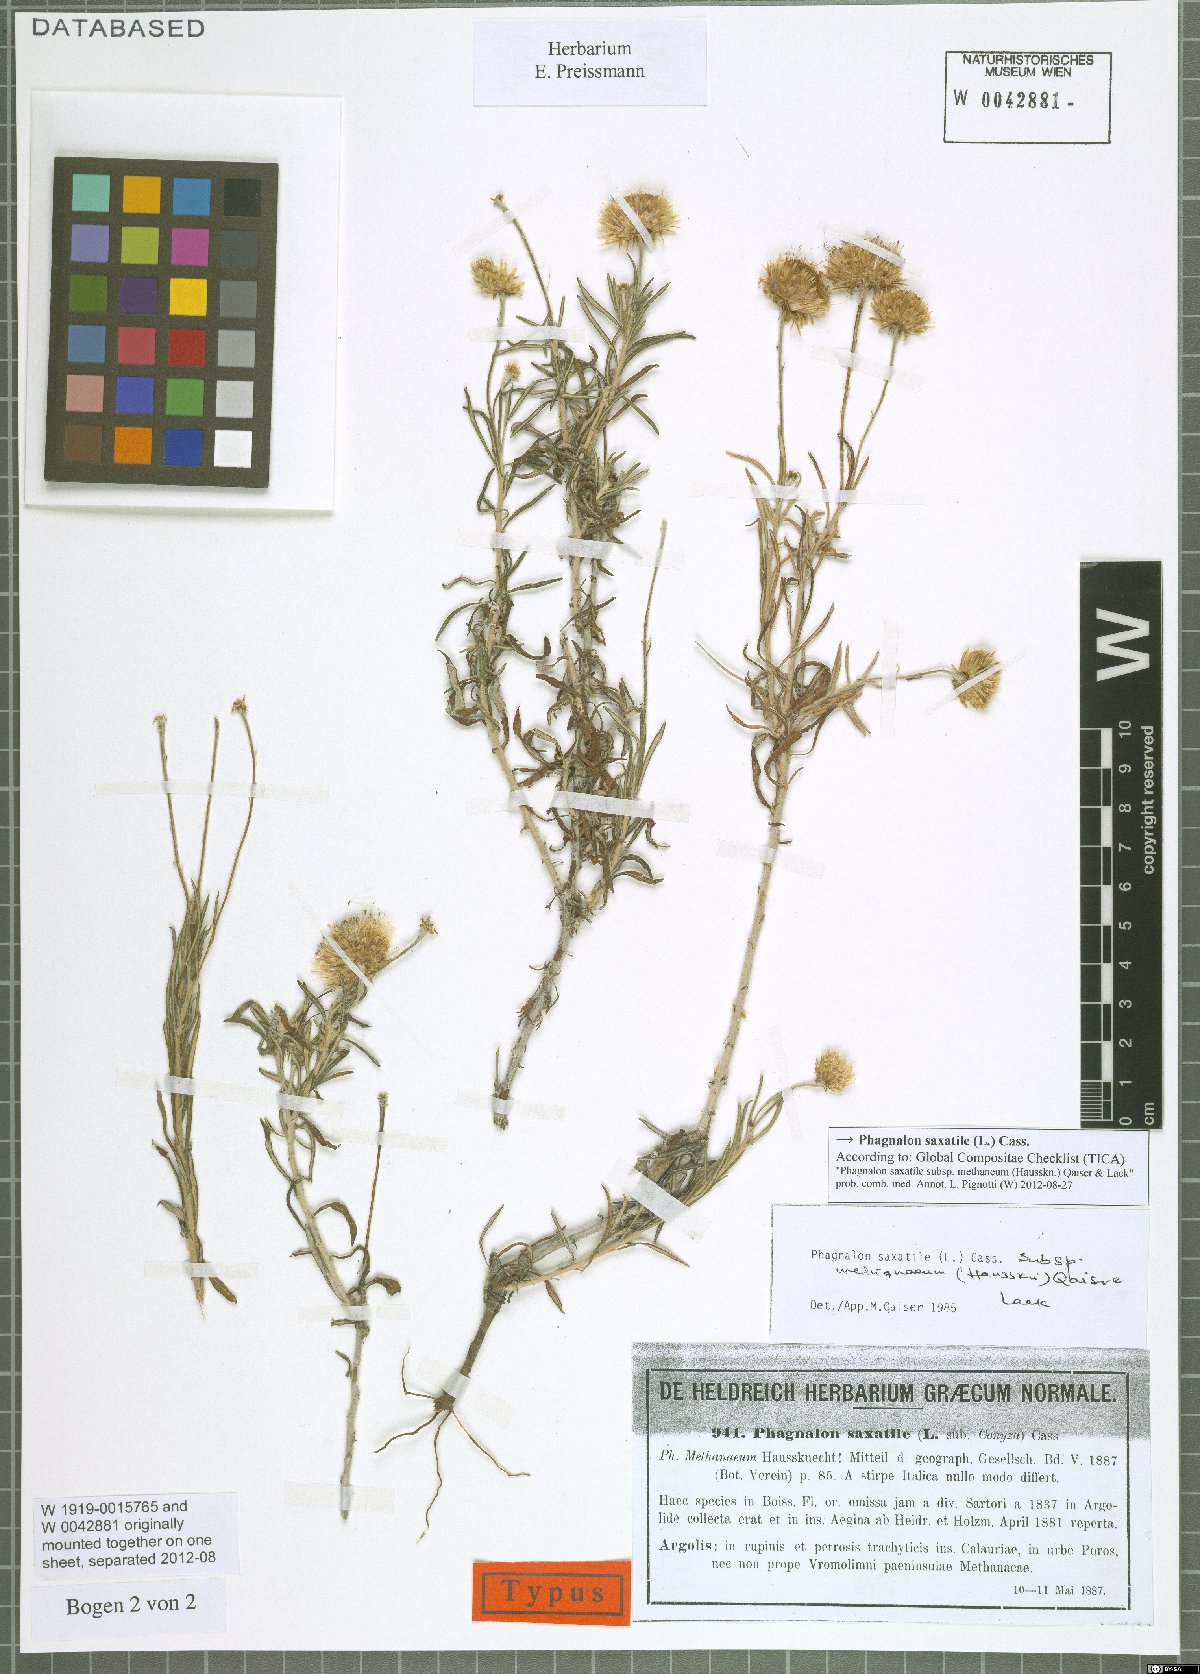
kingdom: Plantae
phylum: Tracheophyta
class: Magnoliopsida
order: Asterales
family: Asteraceae
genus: Phagnalon
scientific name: Phagnalon saxatile
